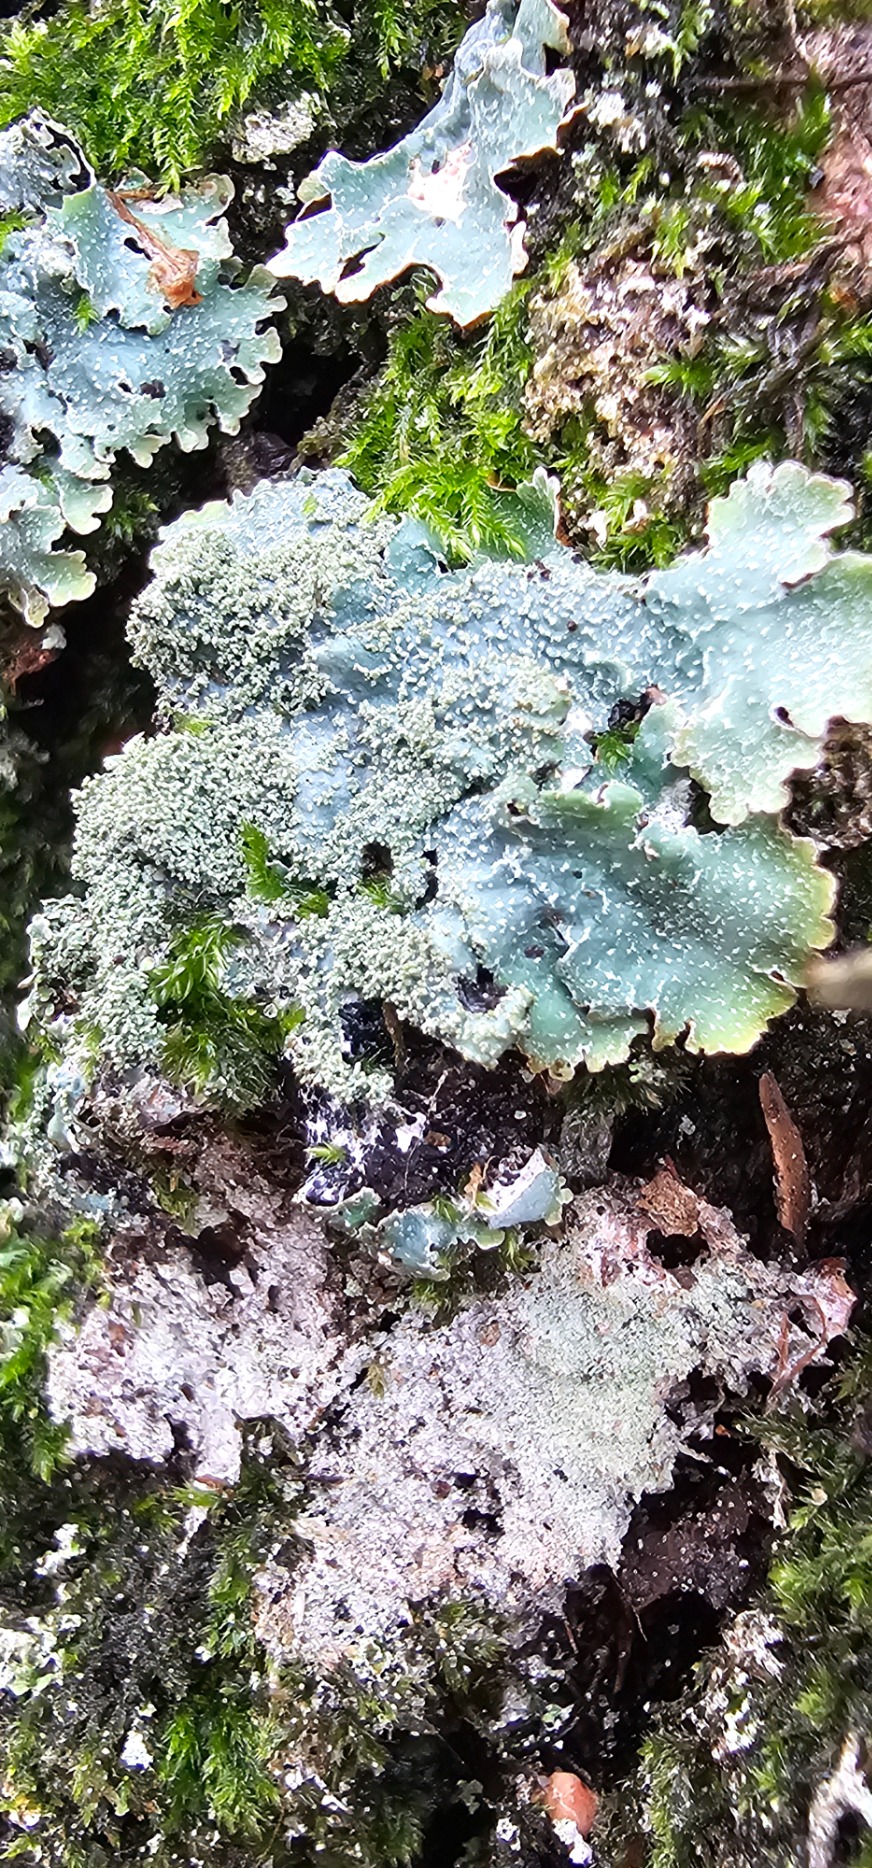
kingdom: Fungi
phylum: Ascomycota
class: Lecanoromycetes
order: Lecanorales
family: Parmeliaceae
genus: Parmelia
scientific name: Parmelia saxatilis
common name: Farve-skållav
